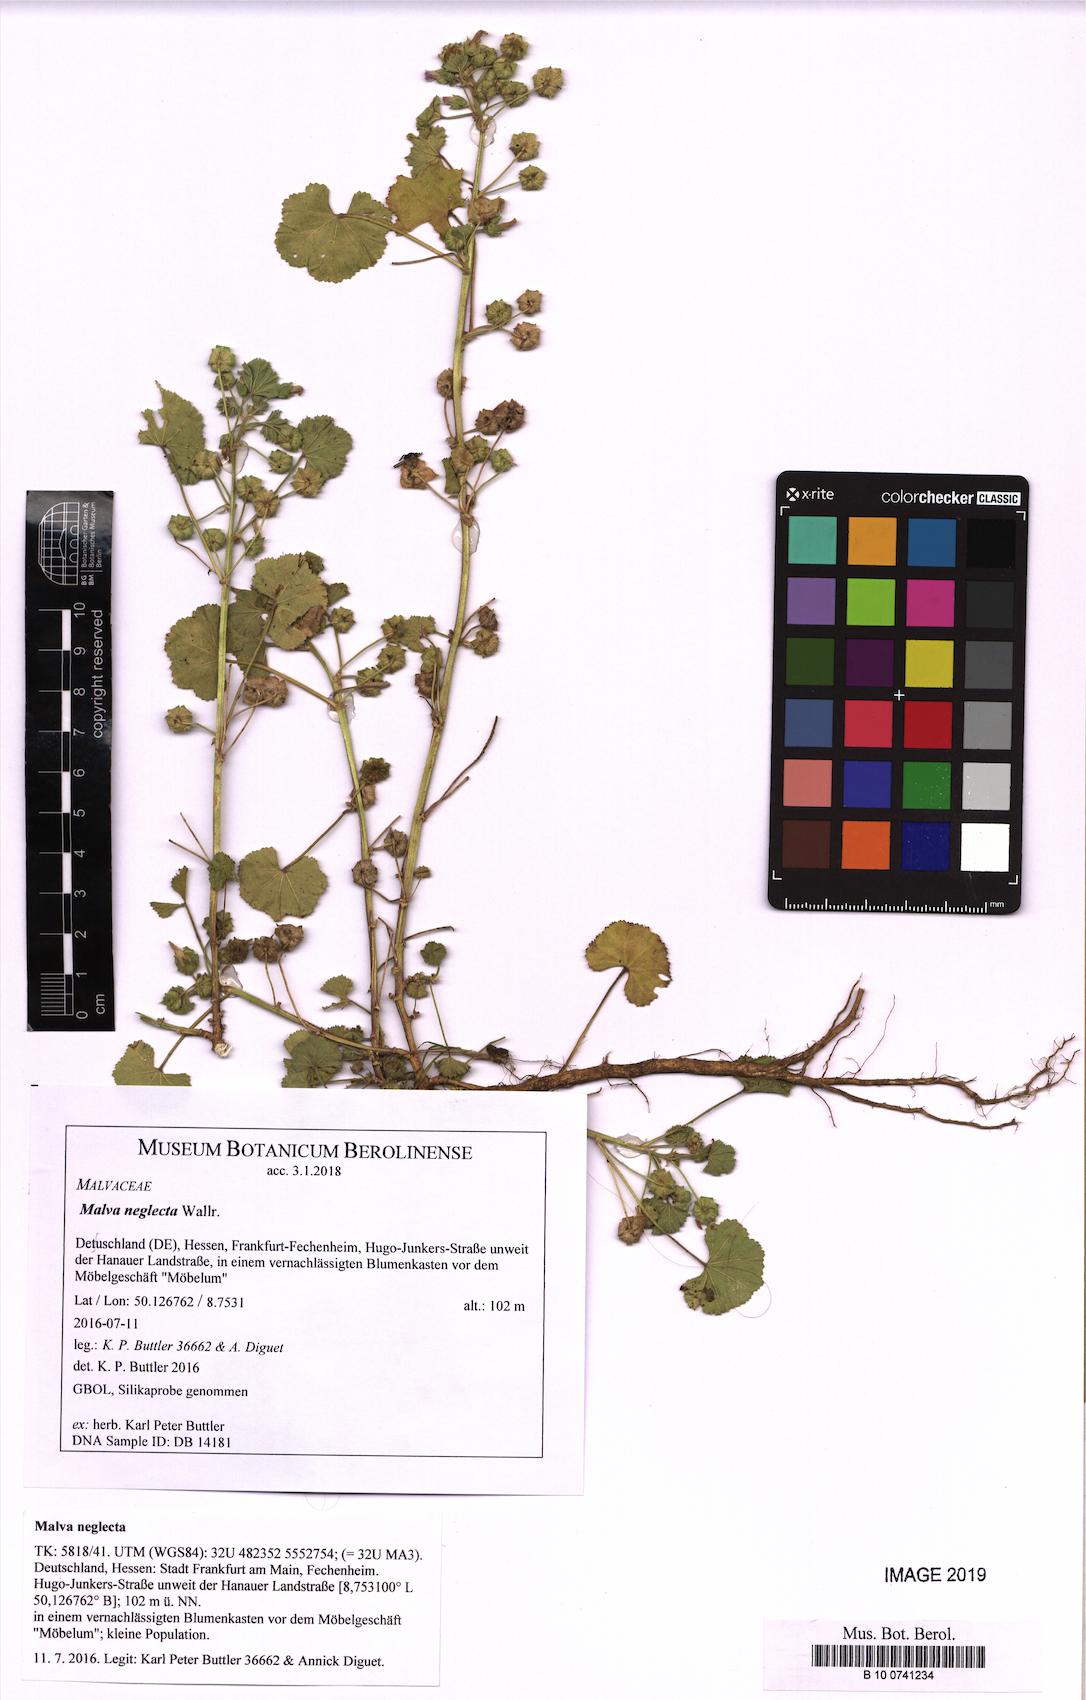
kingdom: Plantae
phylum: Tracheophyta
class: Magnoliopsida
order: Malvales
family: Malvaceae
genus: Malva
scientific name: Malva neglecta
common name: Common mallow
